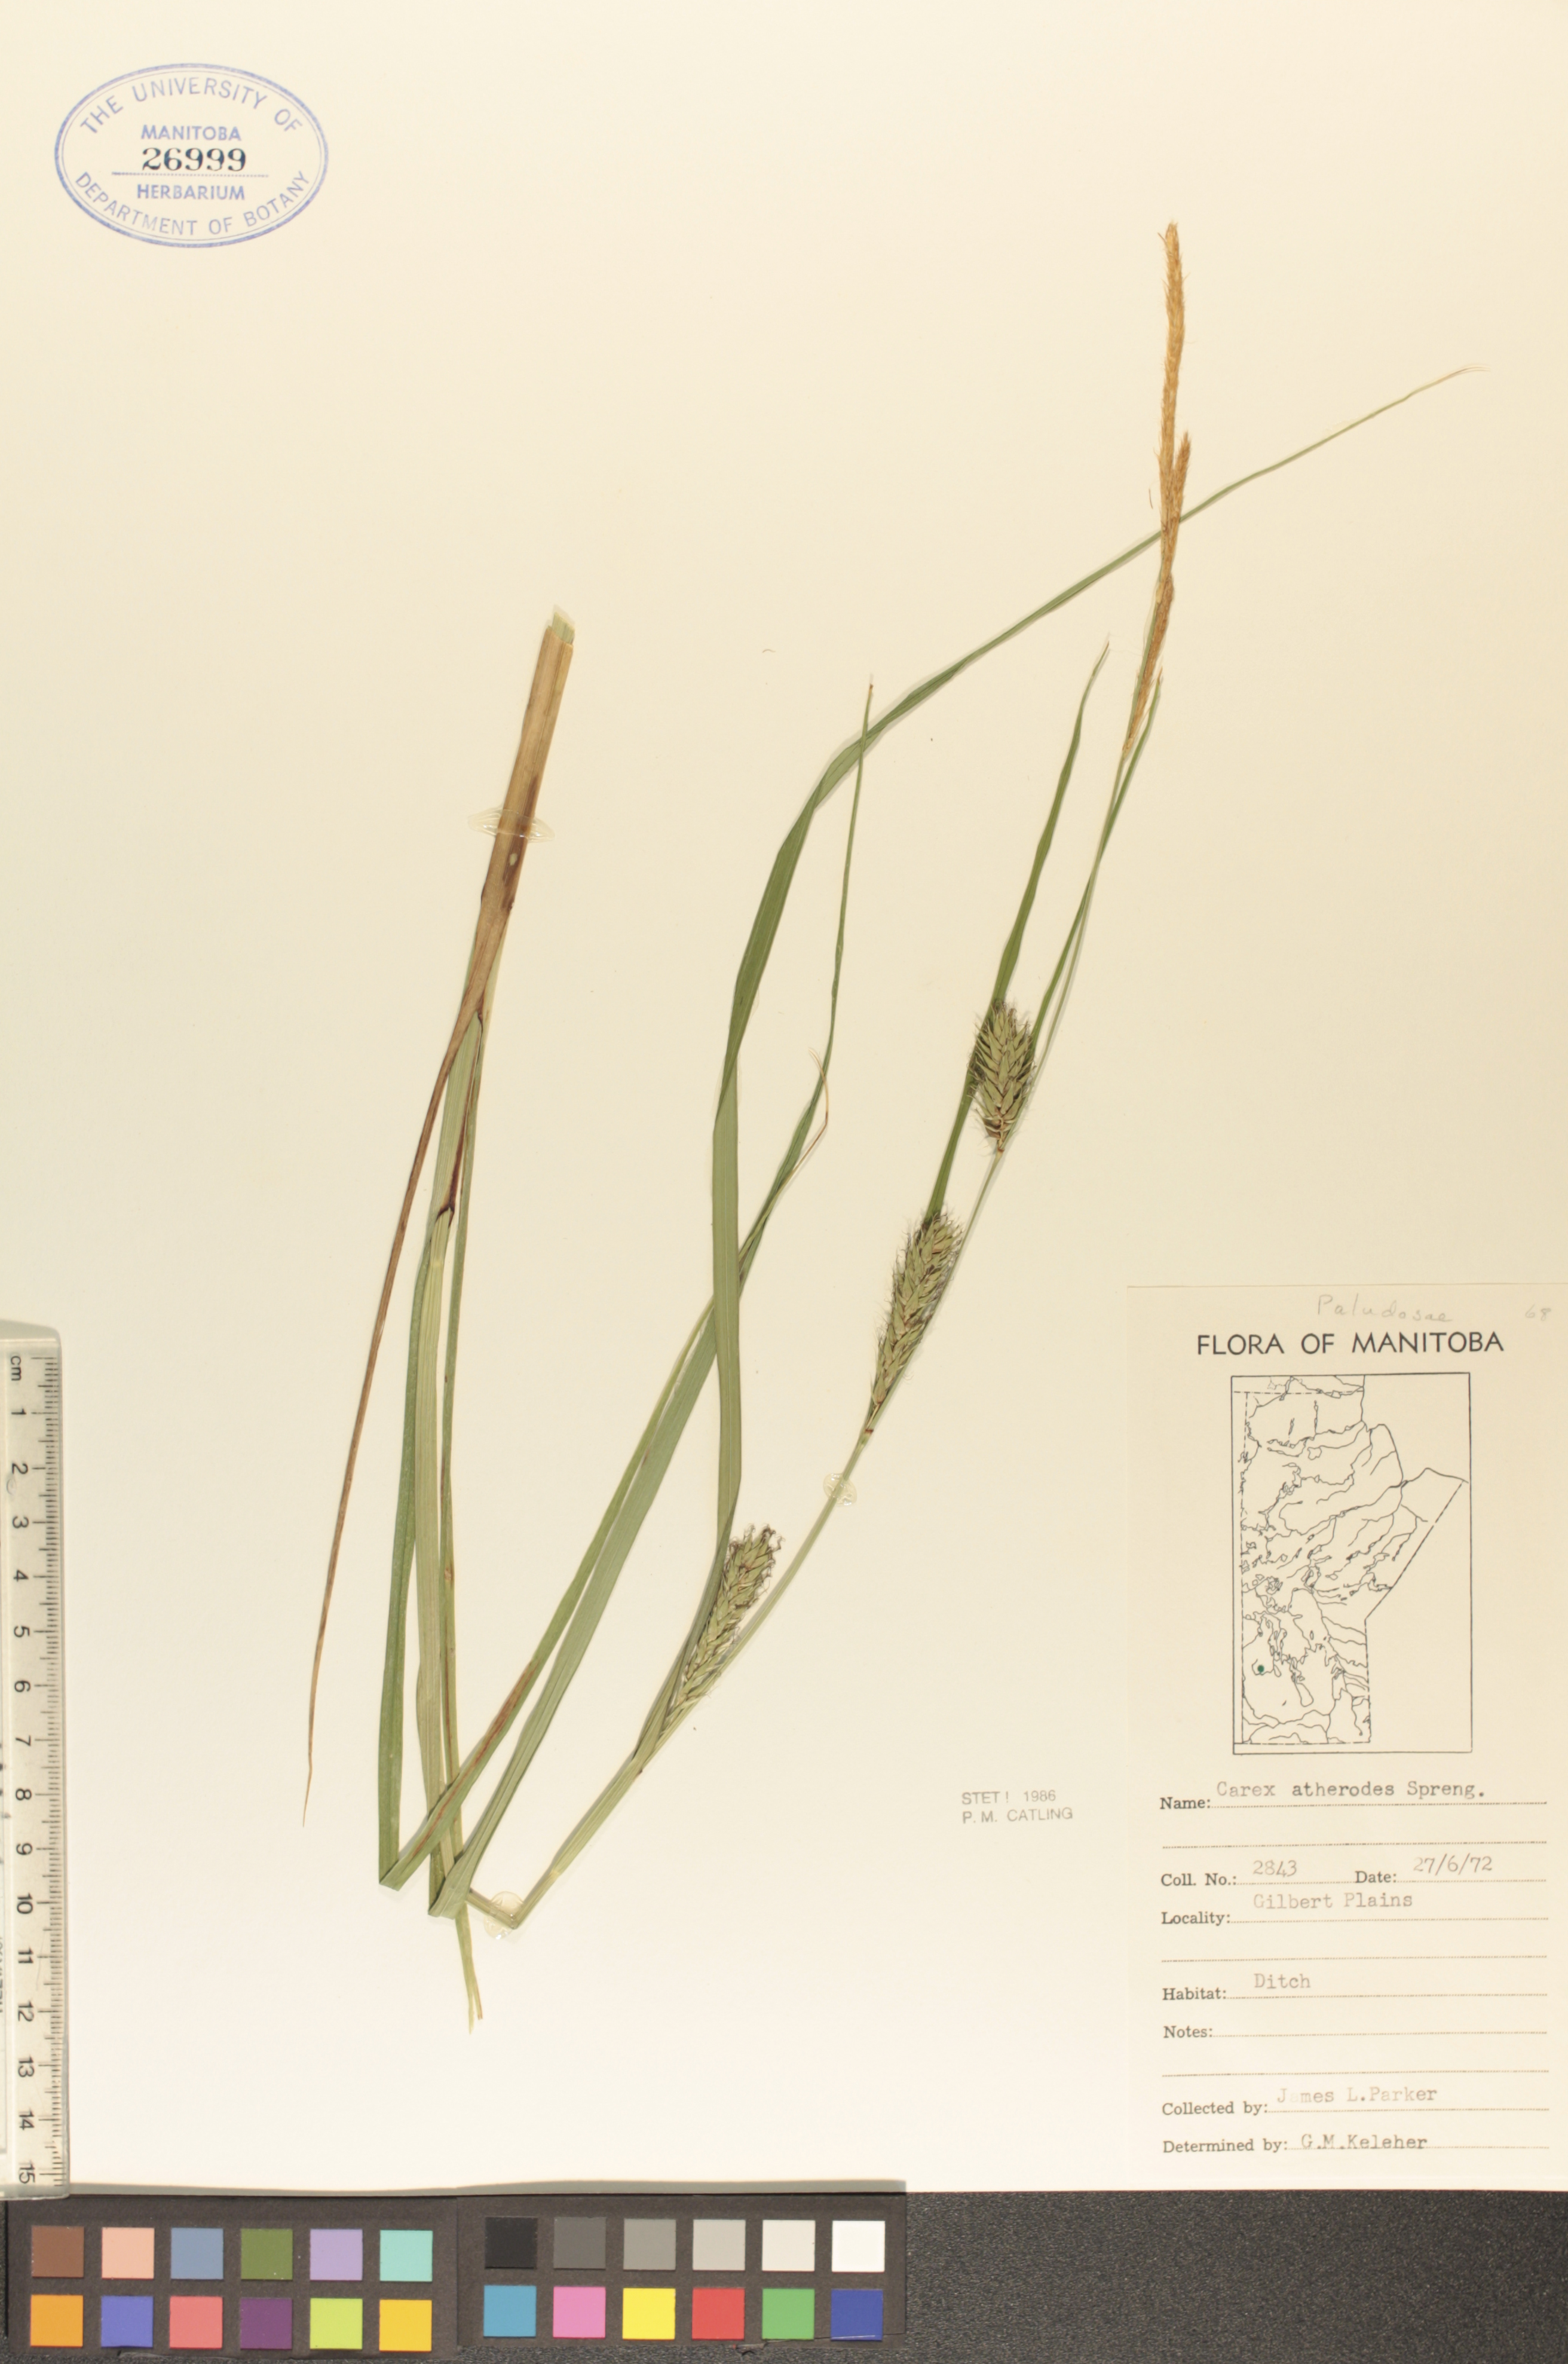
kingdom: Plantae
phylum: Tracheophyta
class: Liliopsida
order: Poales
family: Cyperaceae
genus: Carex
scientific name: Carex atherodes
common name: Wheat sedge
